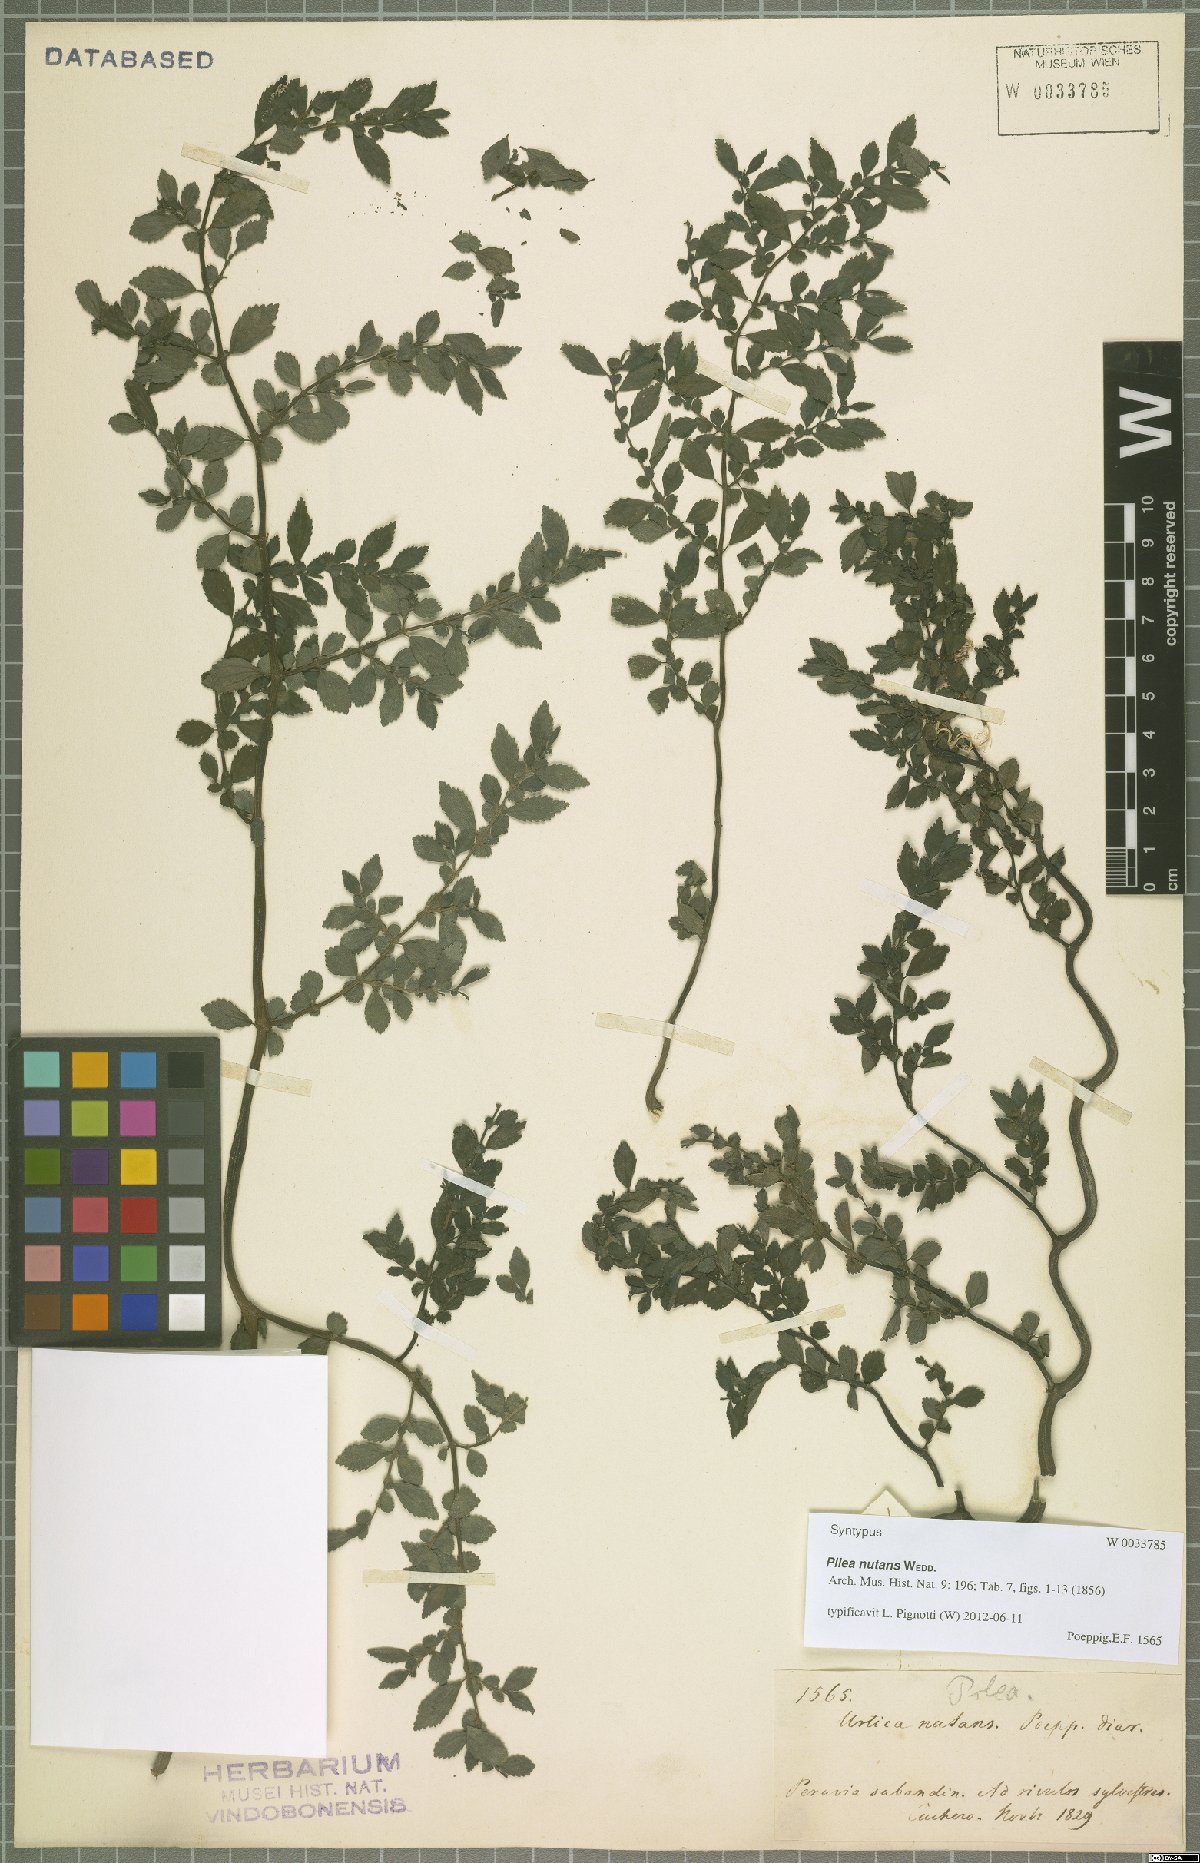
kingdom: Plantae
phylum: Tracheophyta
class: Magnoliopsida
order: Rosales
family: Urticaceae
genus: Pilea
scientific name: Pilea nutans
